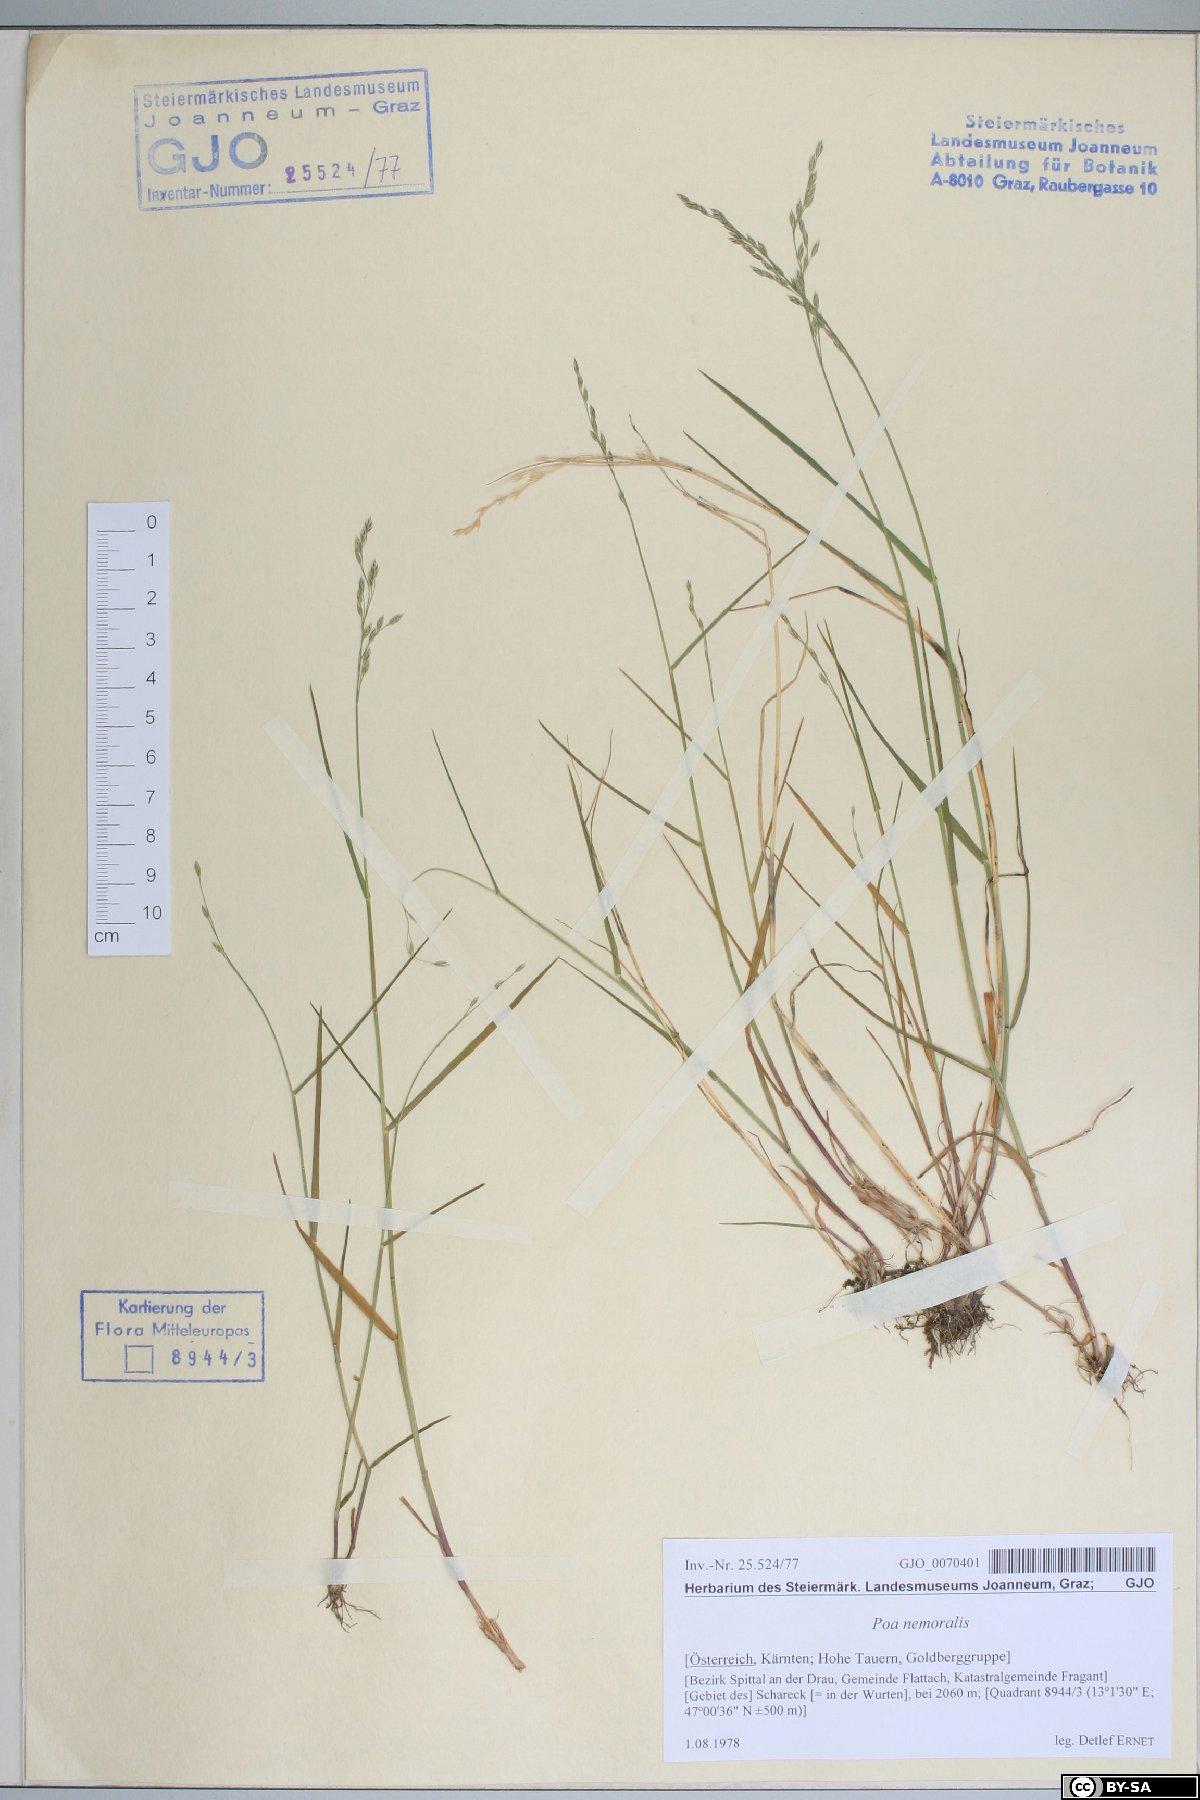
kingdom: Plantae
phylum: Tracheophyta
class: Liliopsida
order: Poales
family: Poaceae
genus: Poa
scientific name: Poa nemoralis
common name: Wood bluegrass
